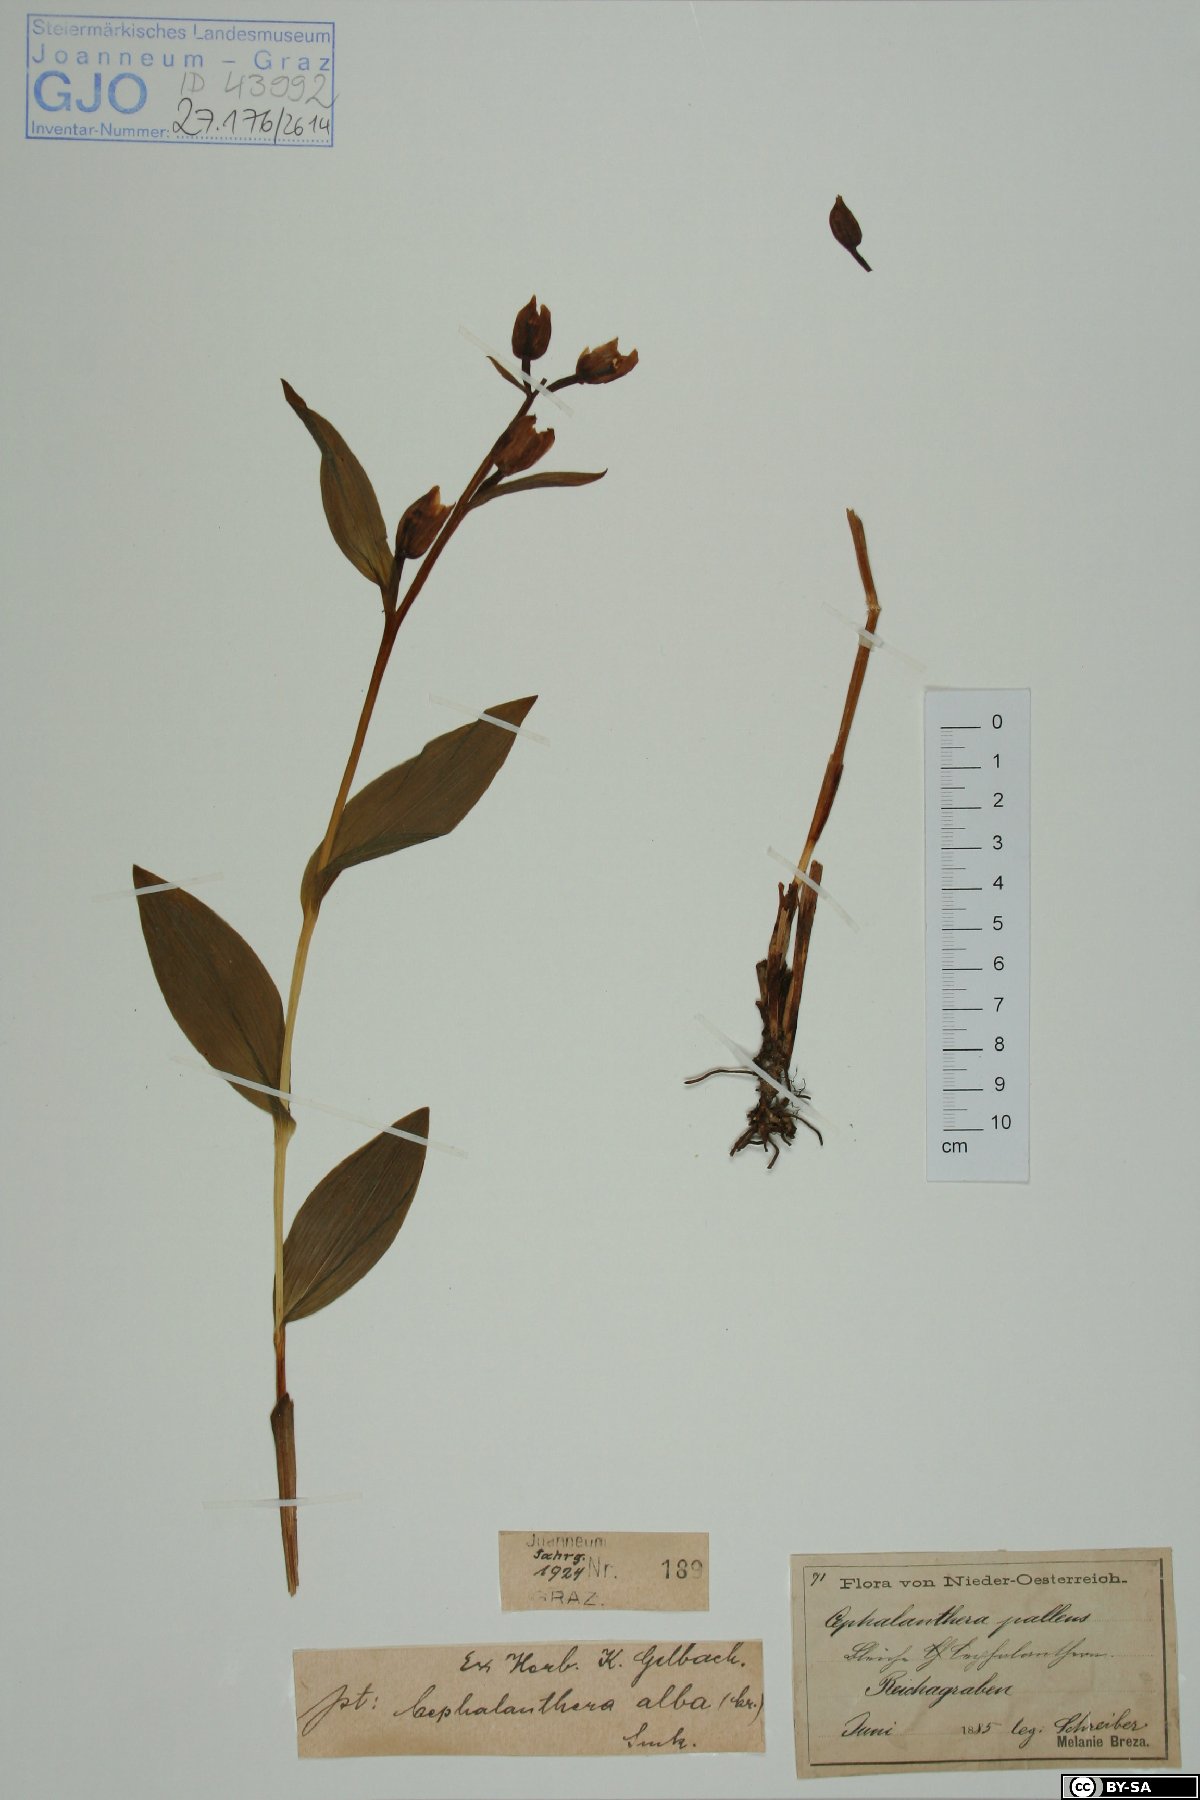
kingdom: Plantae
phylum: Tracheophyta
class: Liliopsida
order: Asparagales
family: Orchidaceae
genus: Cephalanthera
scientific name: Cephalanthera longifolia
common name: Narrow-leaved helleborine
